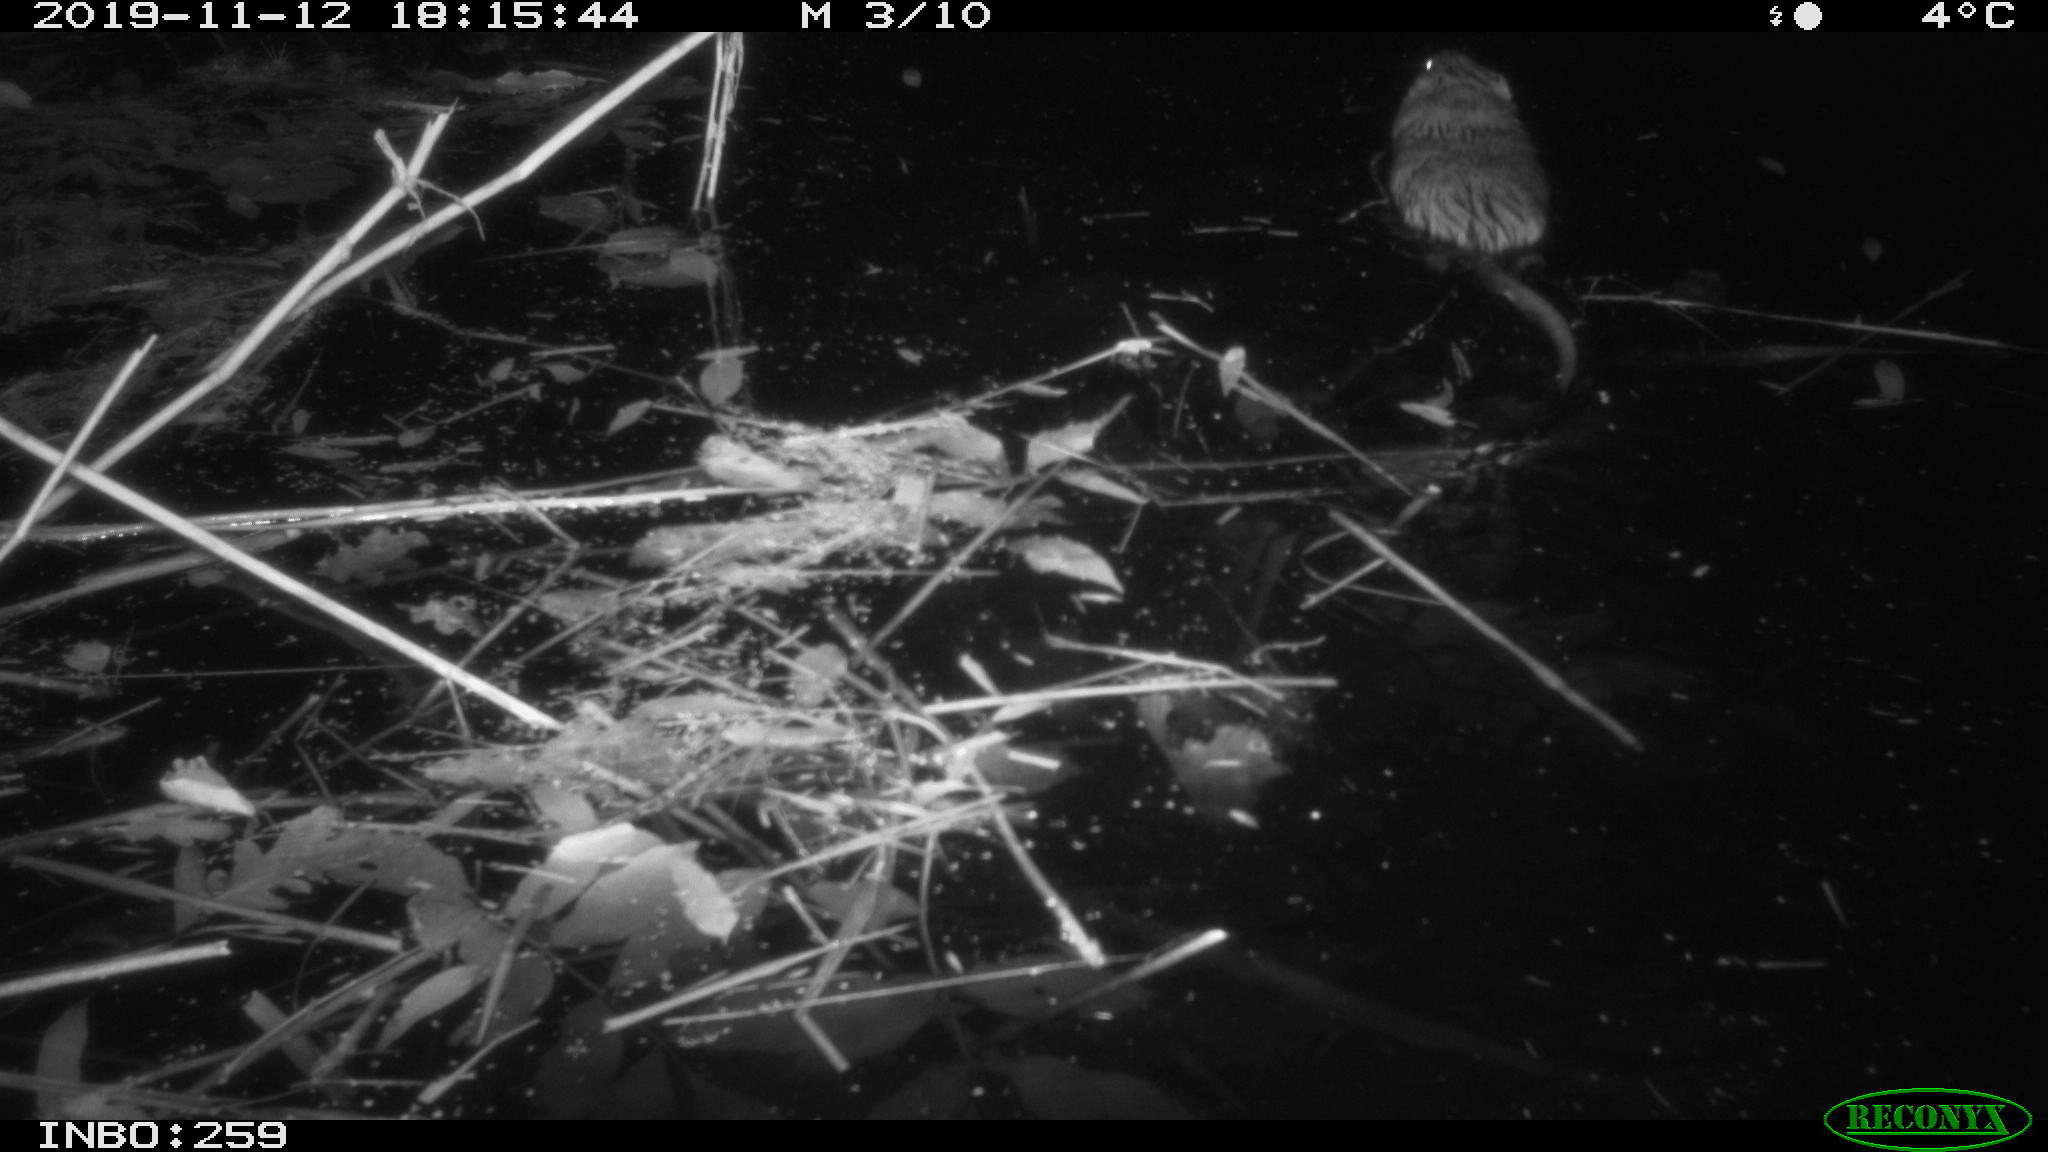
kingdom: Animalia
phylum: Chordata
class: Mammalia
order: Rodentia
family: Cricetidae
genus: Ondatra
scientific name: Ondatra zibethicus
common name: Muskrat
